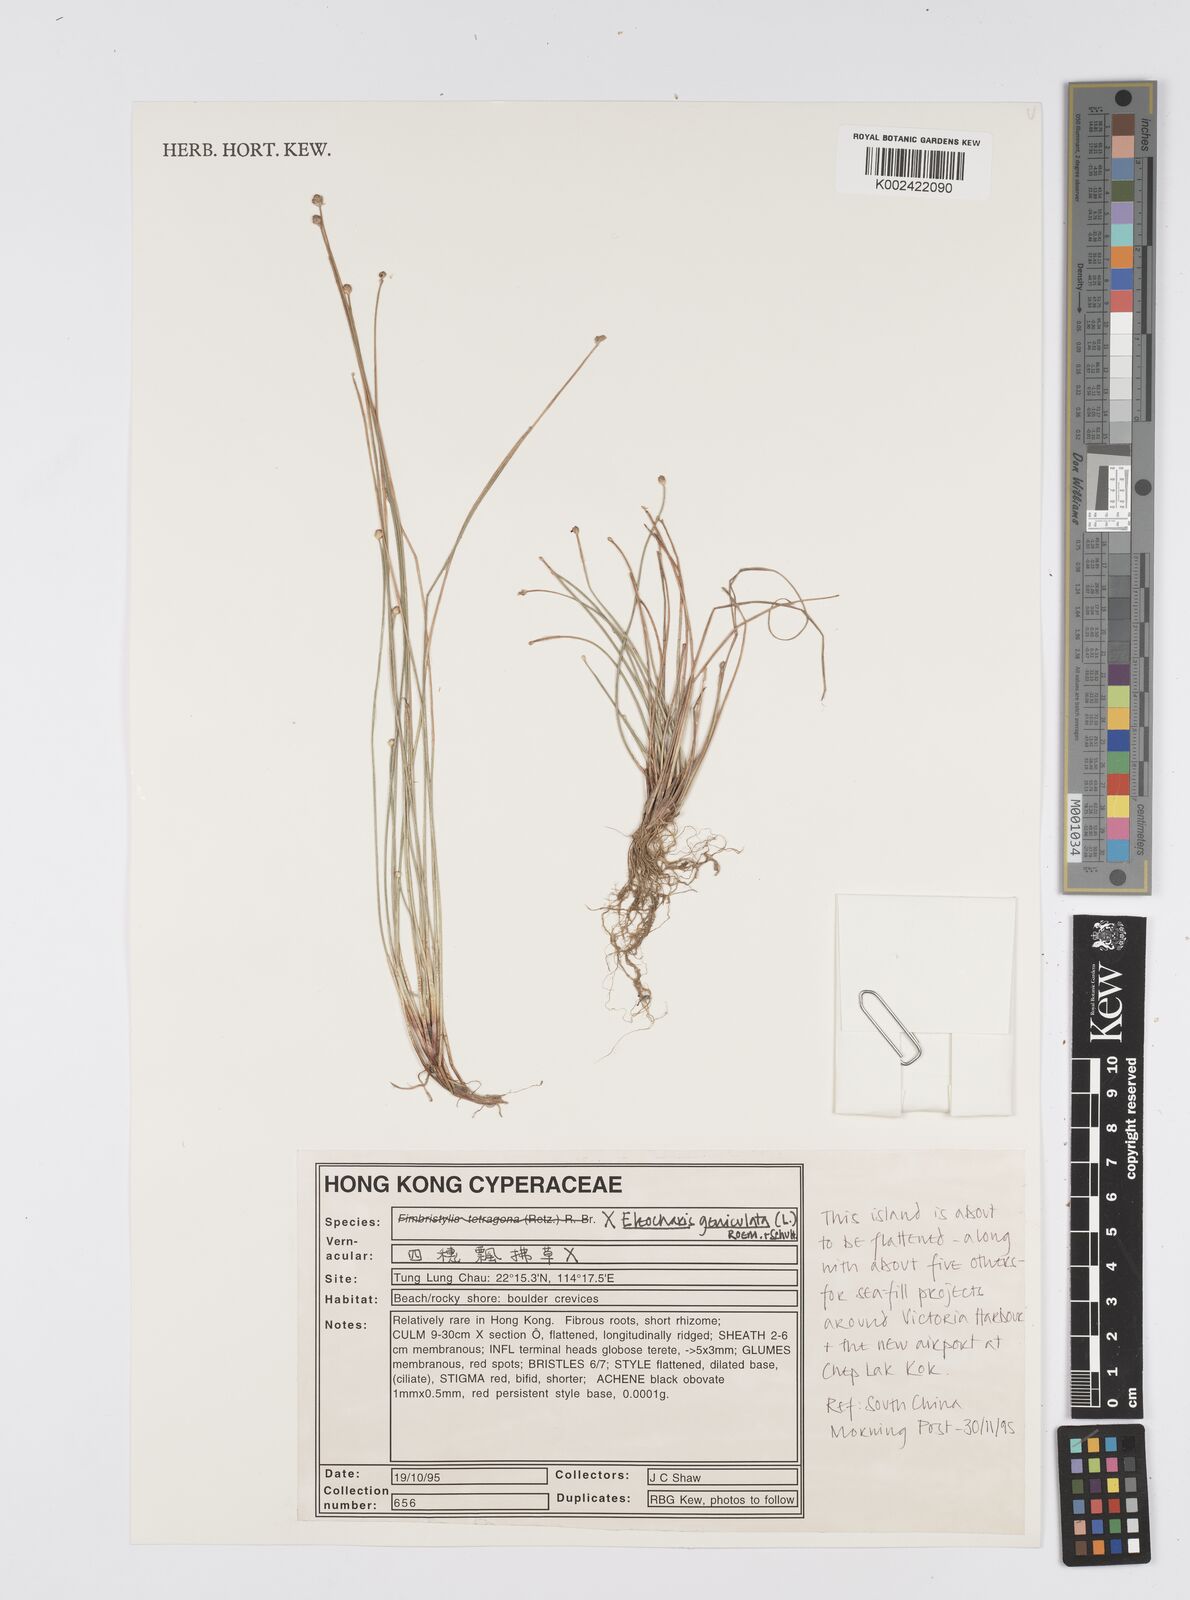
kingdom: Plantae
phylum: Tracheophyta
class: Liliopsida
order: Poales
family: Cyperaceae
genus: Eleocharis
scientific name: Eleocharis geniculata
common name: Canada spikesedge
